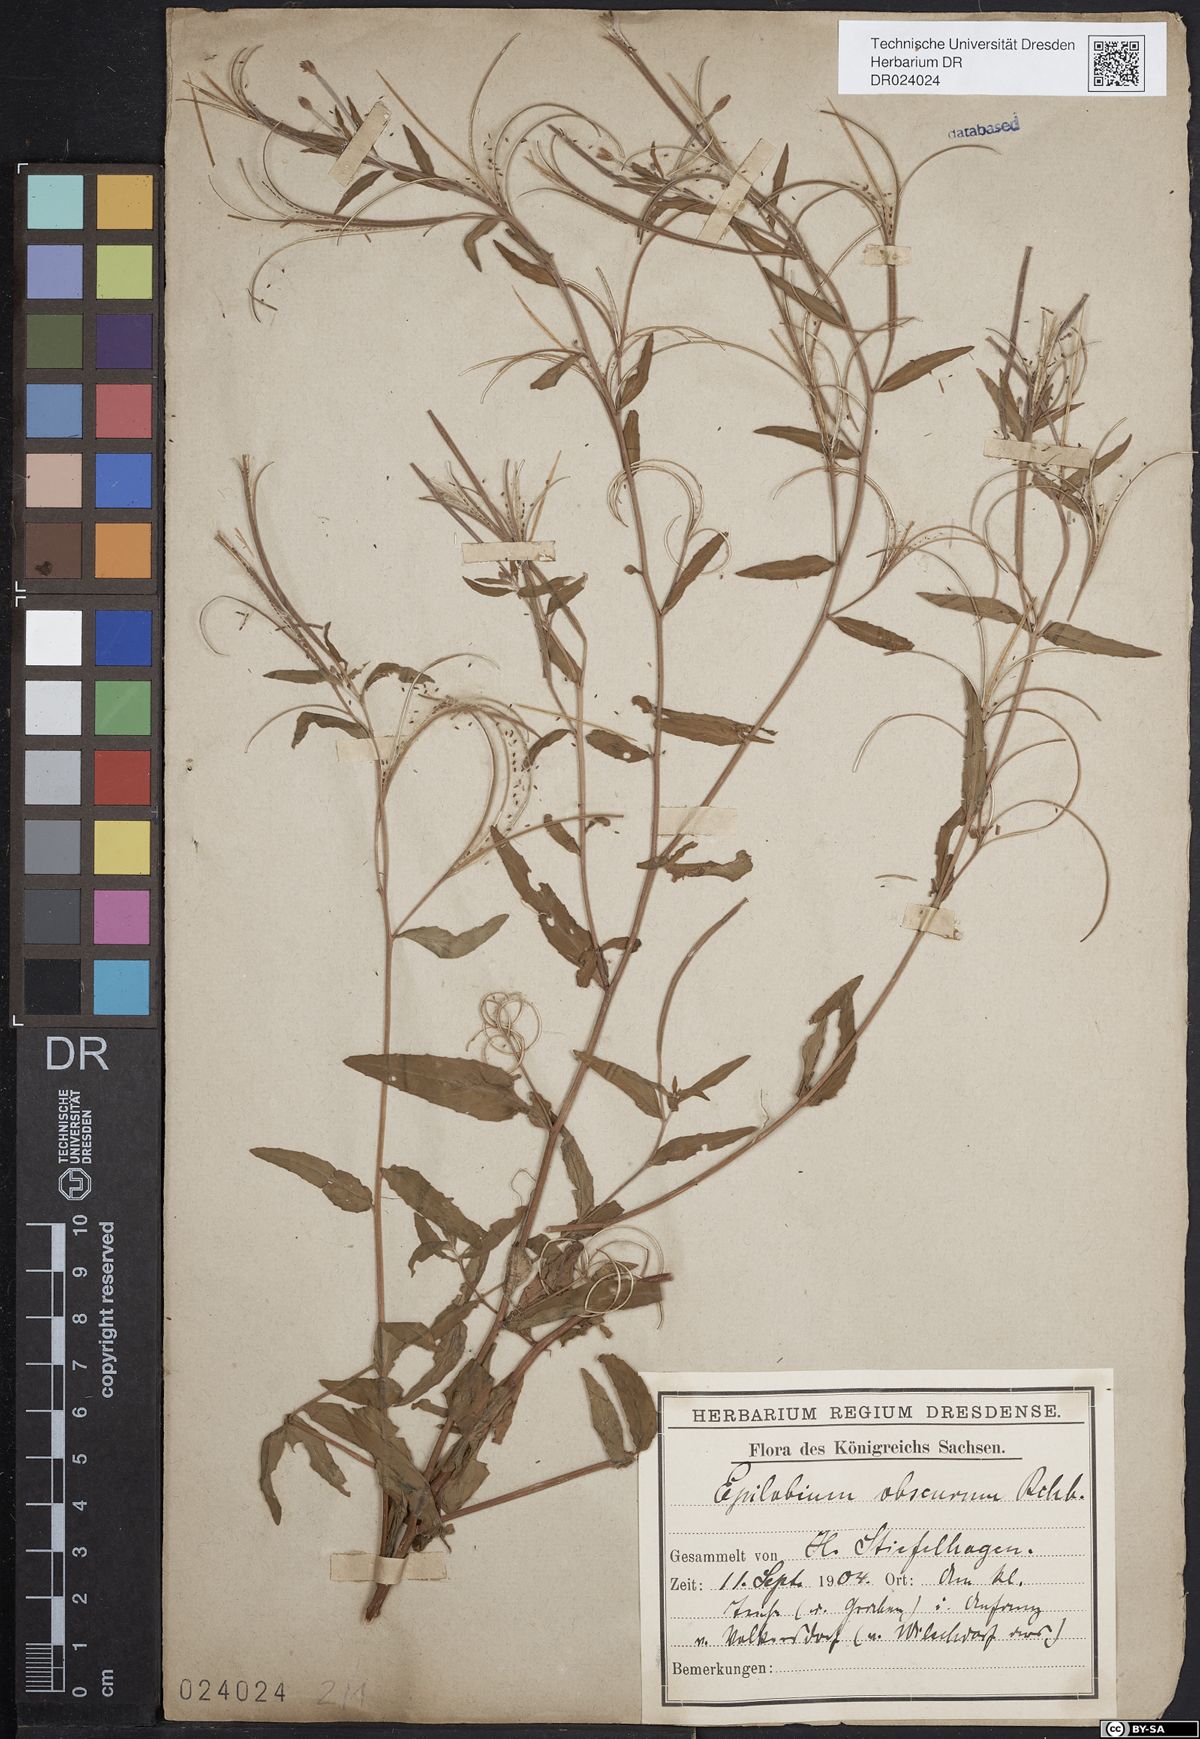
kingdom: Plantae
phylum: Tracheophyta
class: Magnoliopsida
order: Myrtales
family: Onagraceae
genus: Epilobium
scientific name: Epilobium obscurum
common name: Short-fruited willowherb
